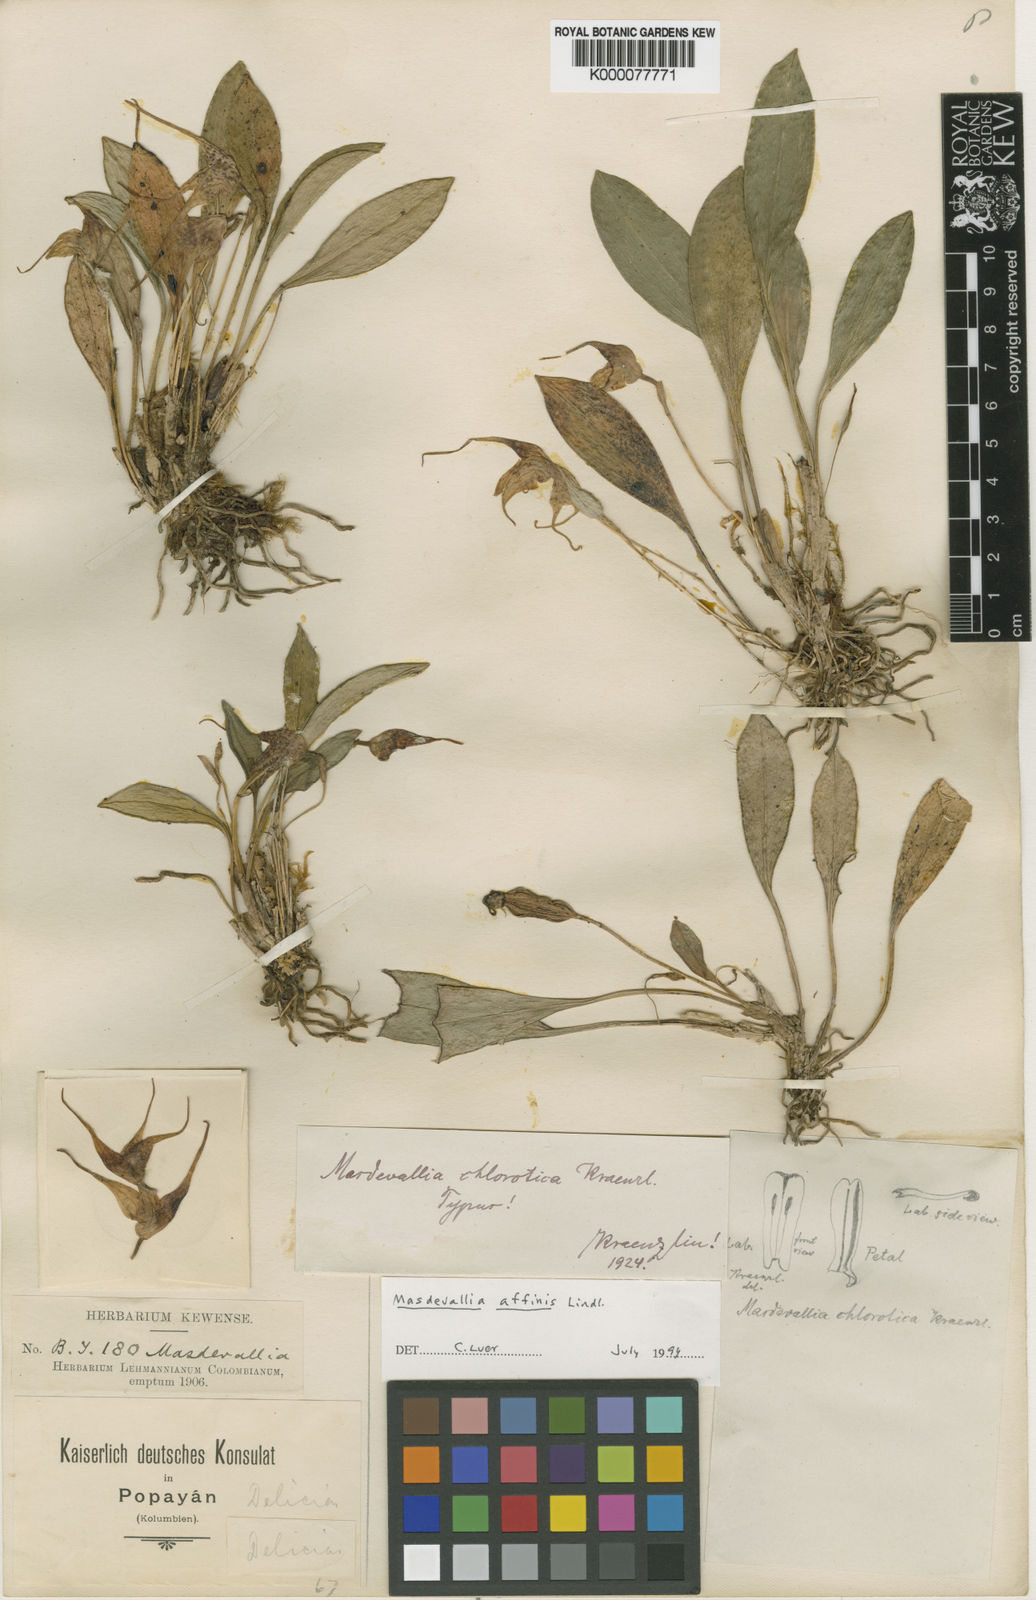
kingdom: Plantae
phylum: Tracheophyta
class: Liliopsida
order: Asparagales
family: Orchidaceae
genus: Masdevallia
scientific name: Masdevallia laevis
